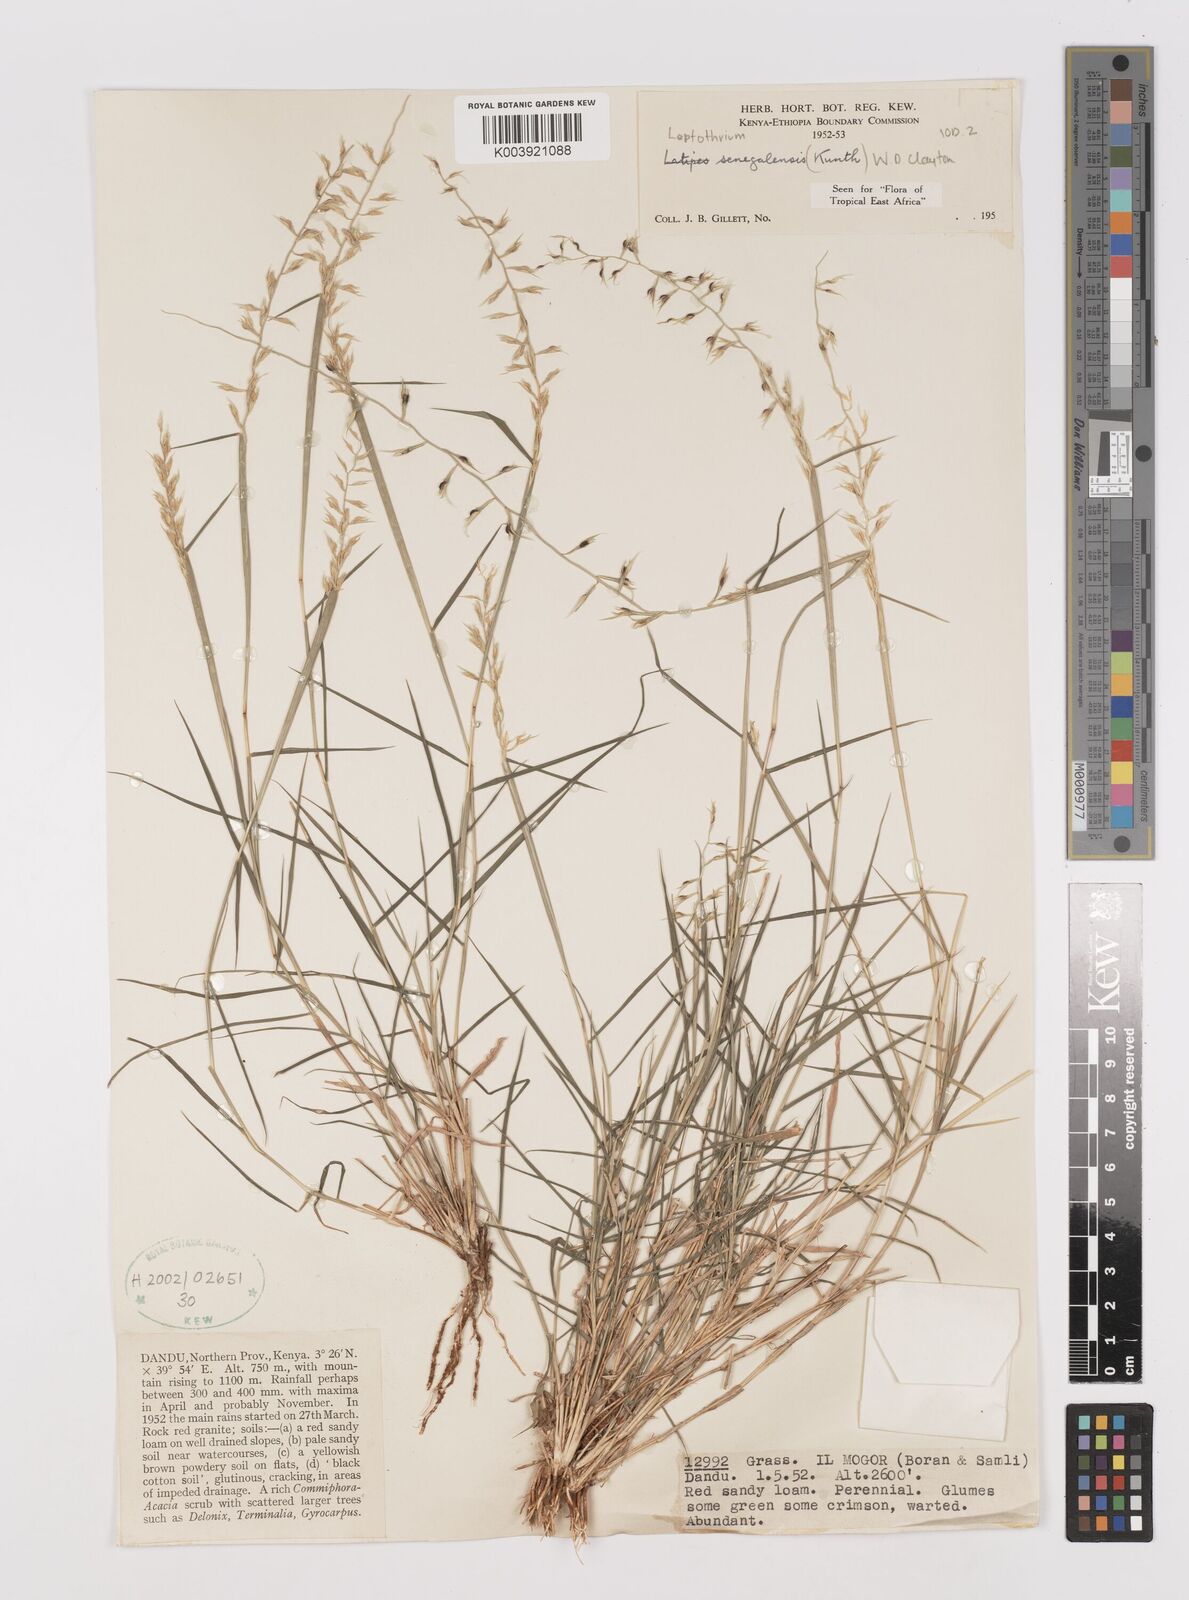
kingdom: Plantae
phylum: Tracheophyta
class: Liliopsida
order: Poales
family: Poaceae
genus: Leptothrium
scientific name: Leptothrium senegalense
